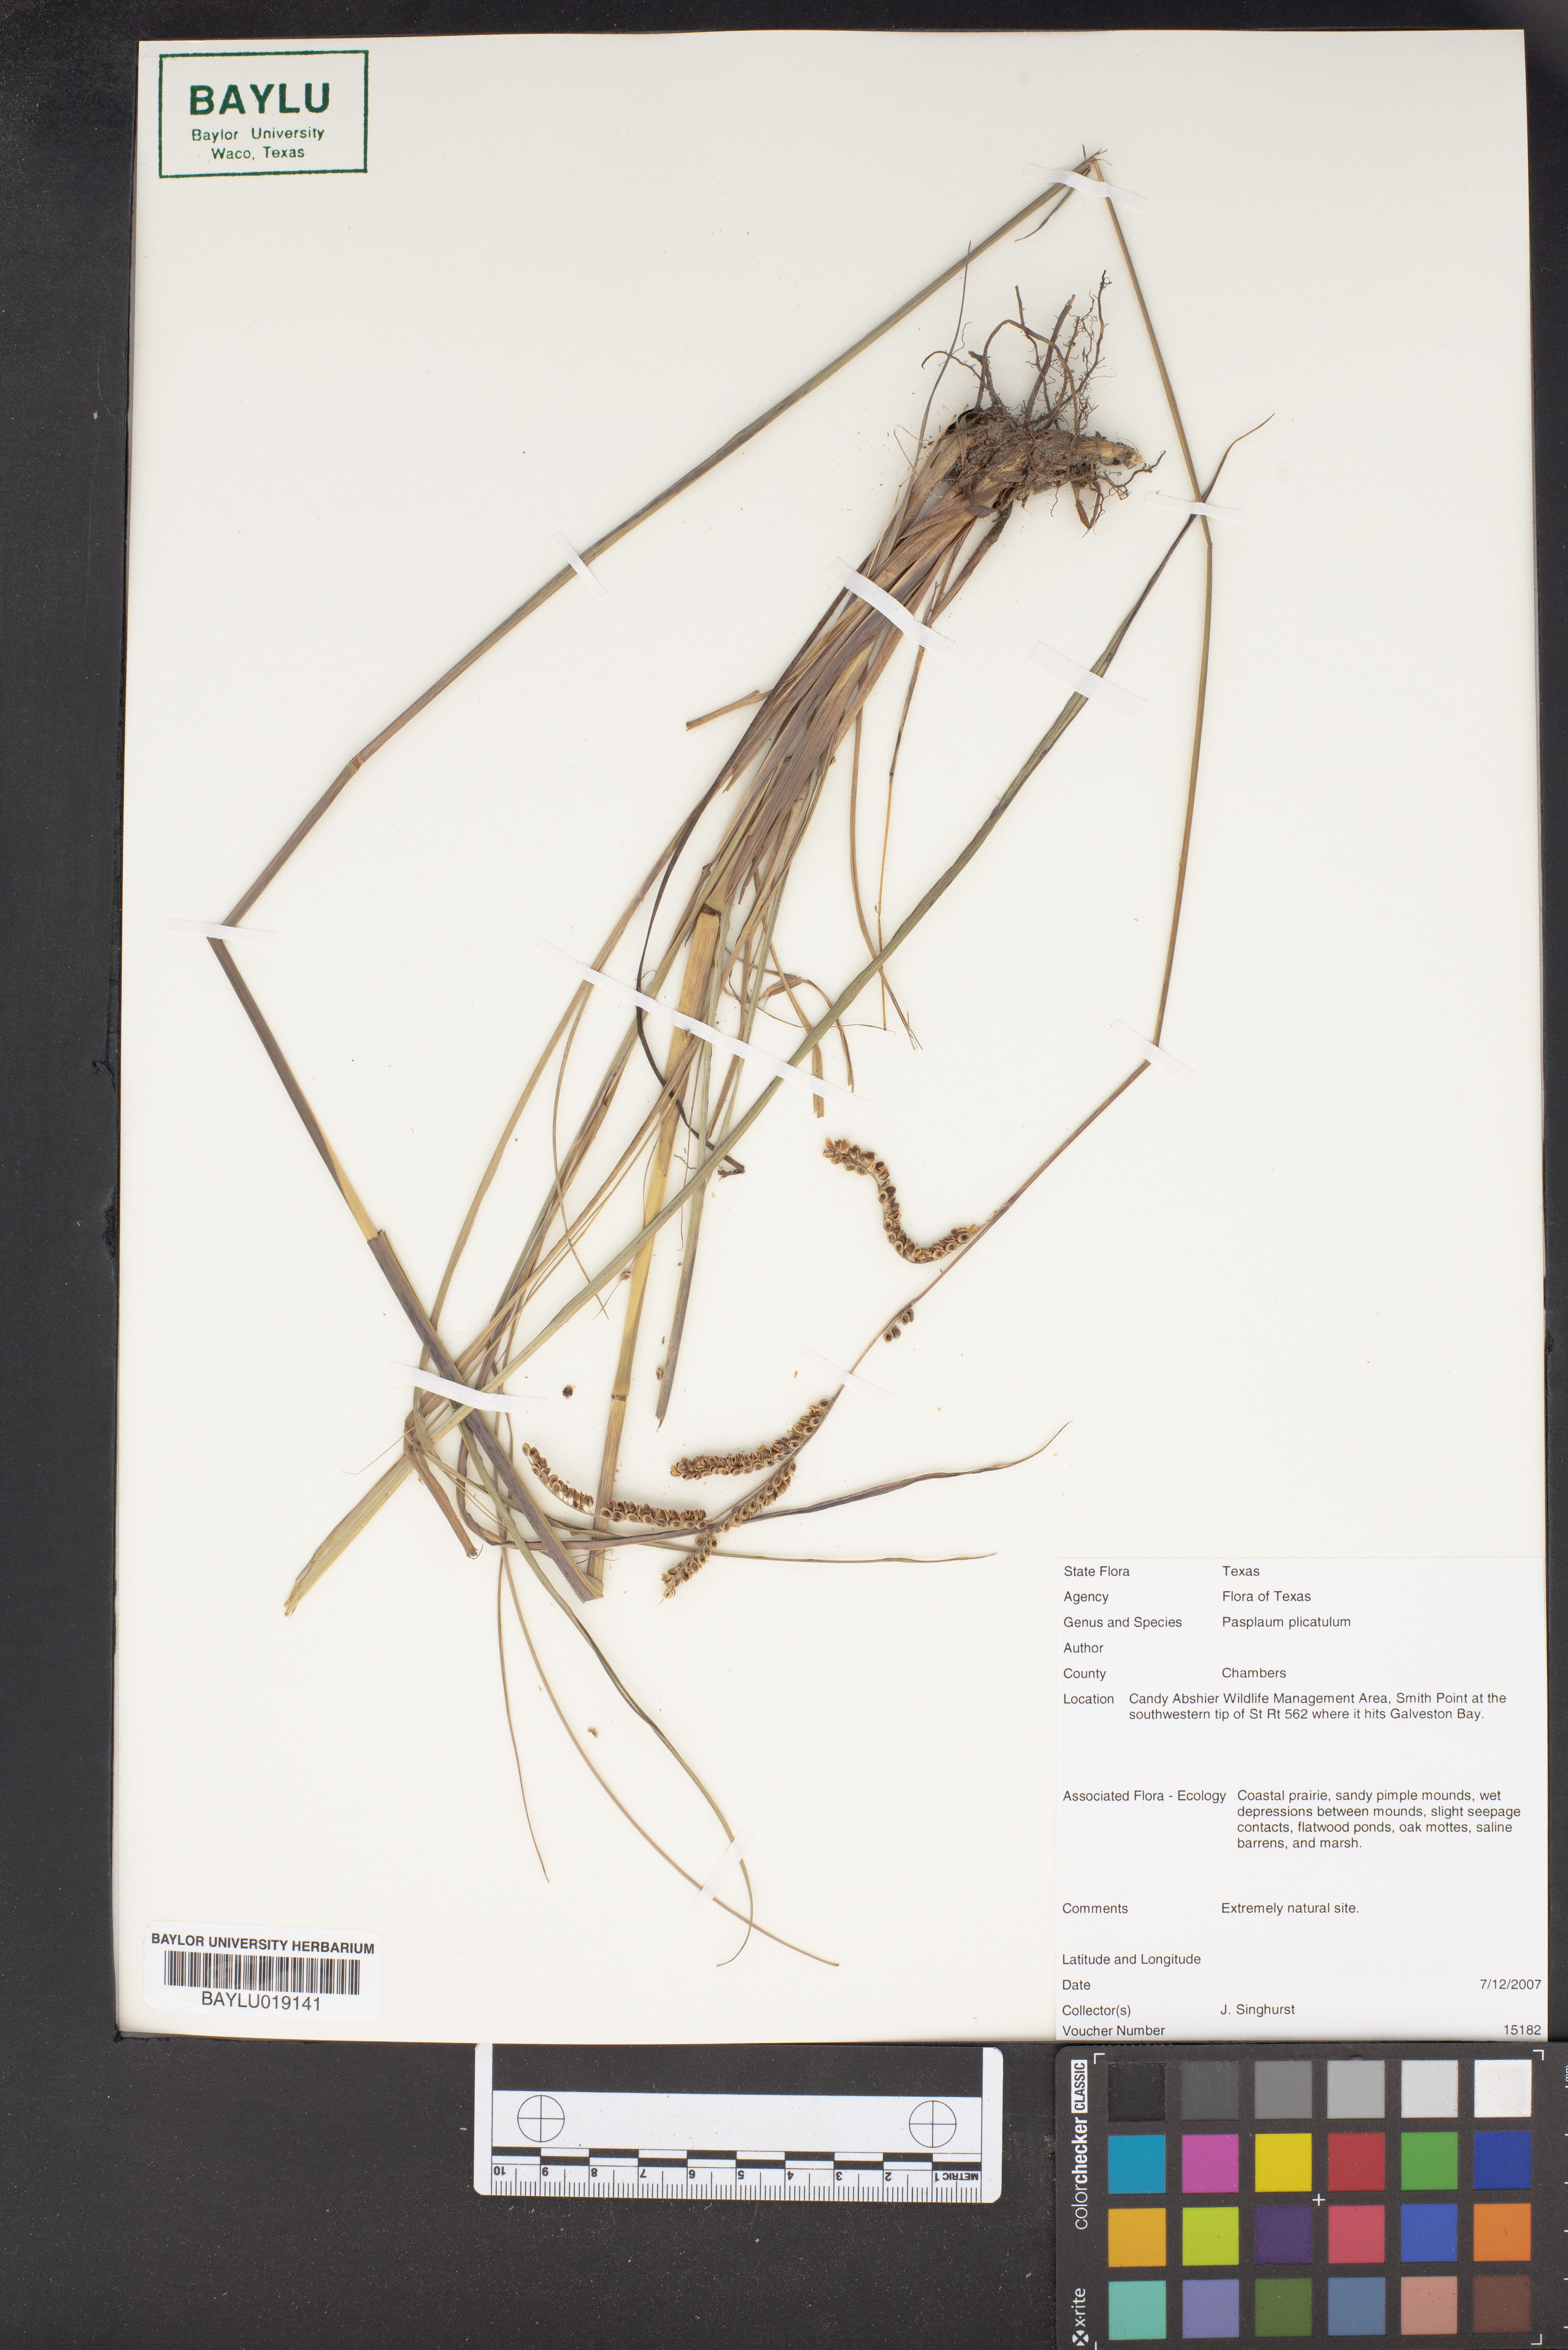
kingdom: Plantae
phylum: Tracheophyta
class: Liliopsida
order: Poales
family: Poaceae
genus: Paspalum
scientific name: Paspalum plicatulum
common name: Top paspalum
